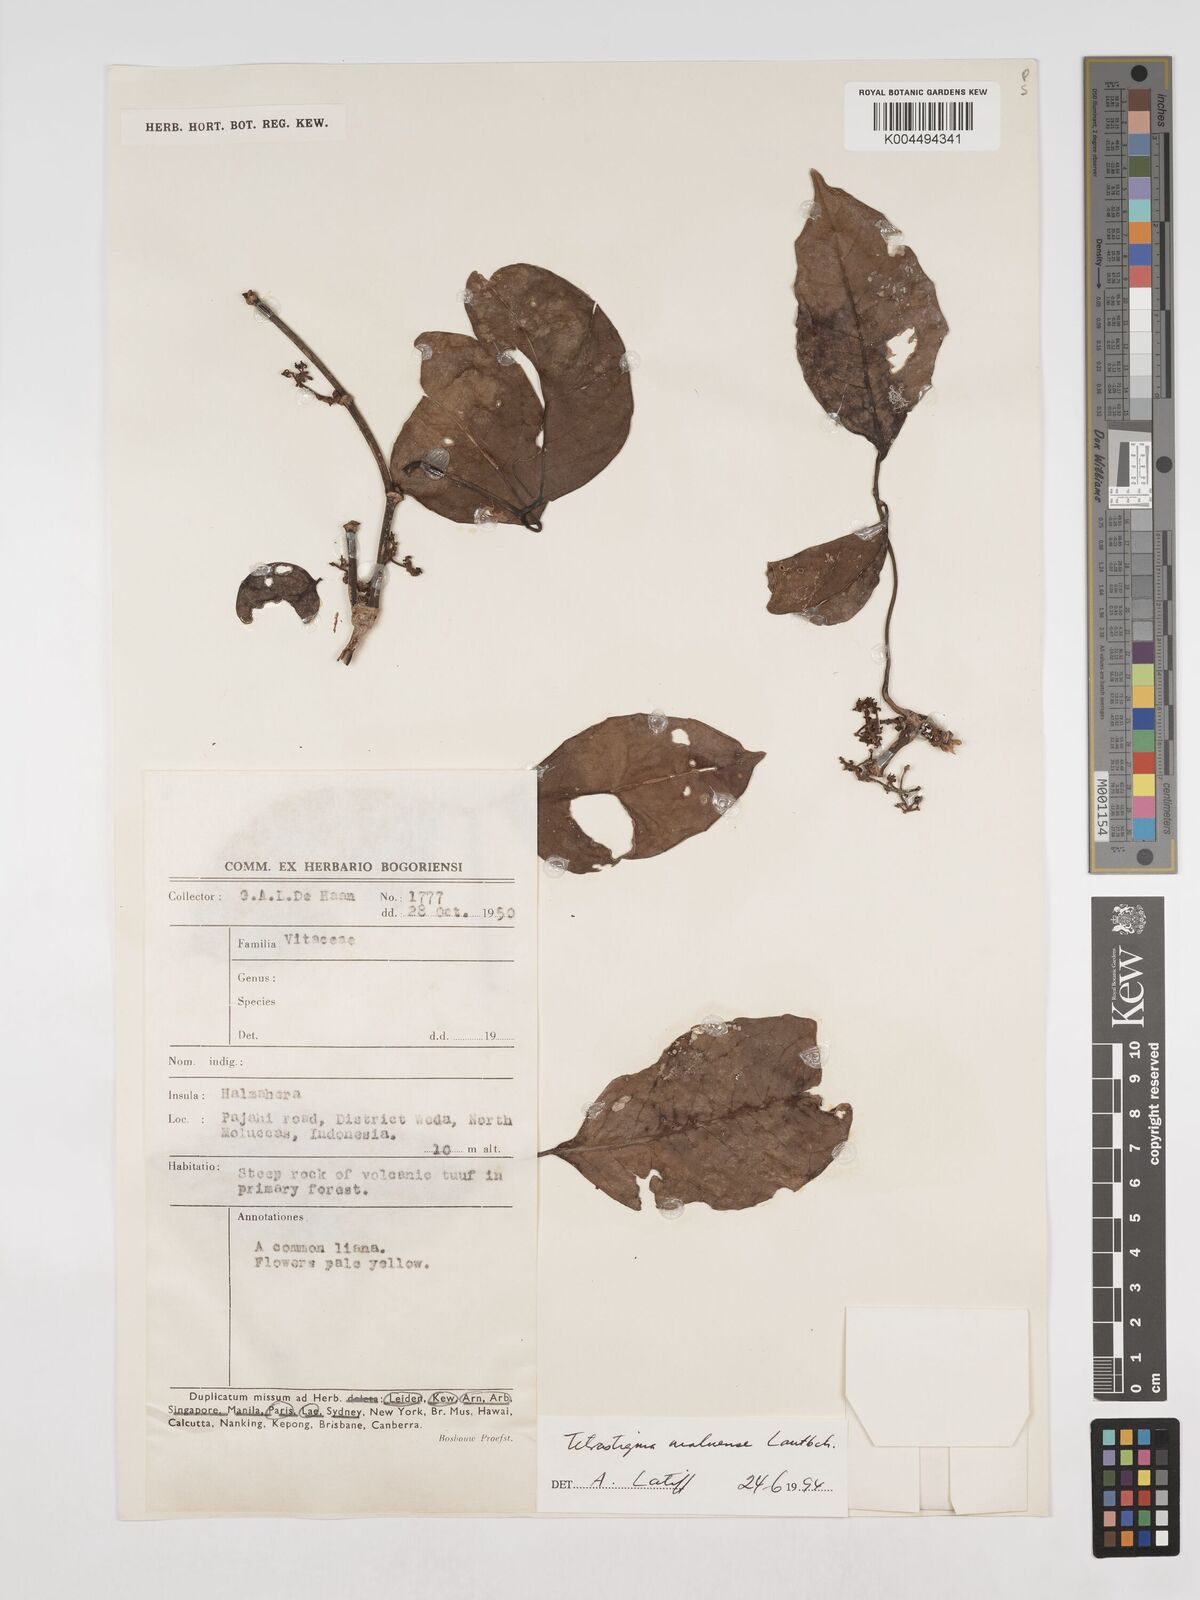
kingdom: Plantae
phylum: Tracheophyta
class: Magnoliopsida
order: Vitales
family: Vitaceae
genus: Tetrastigma
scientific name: Tetrastigma maluense
